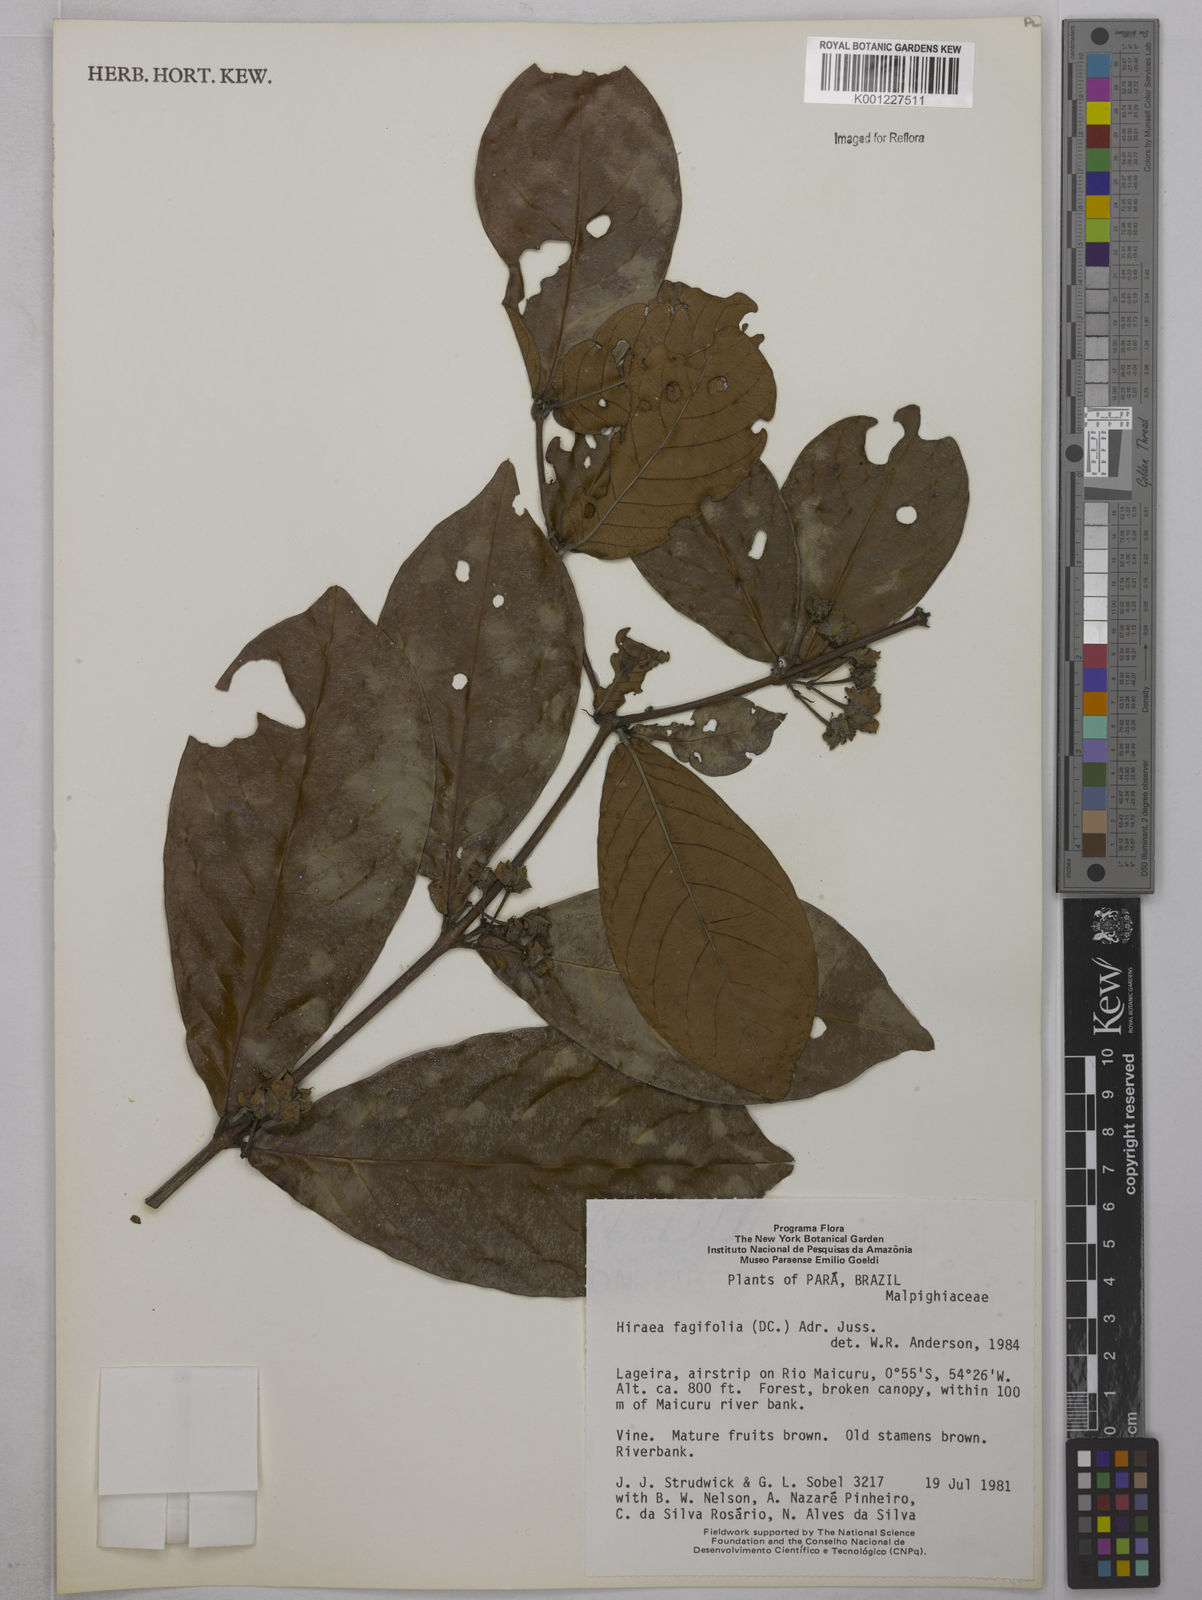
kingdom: Plantae
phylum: Tracheophyta
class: Magnoliopsida
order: Malpighiales
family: Malpighiaceae
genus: Hiraea
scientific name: Hiraea fagifolia
